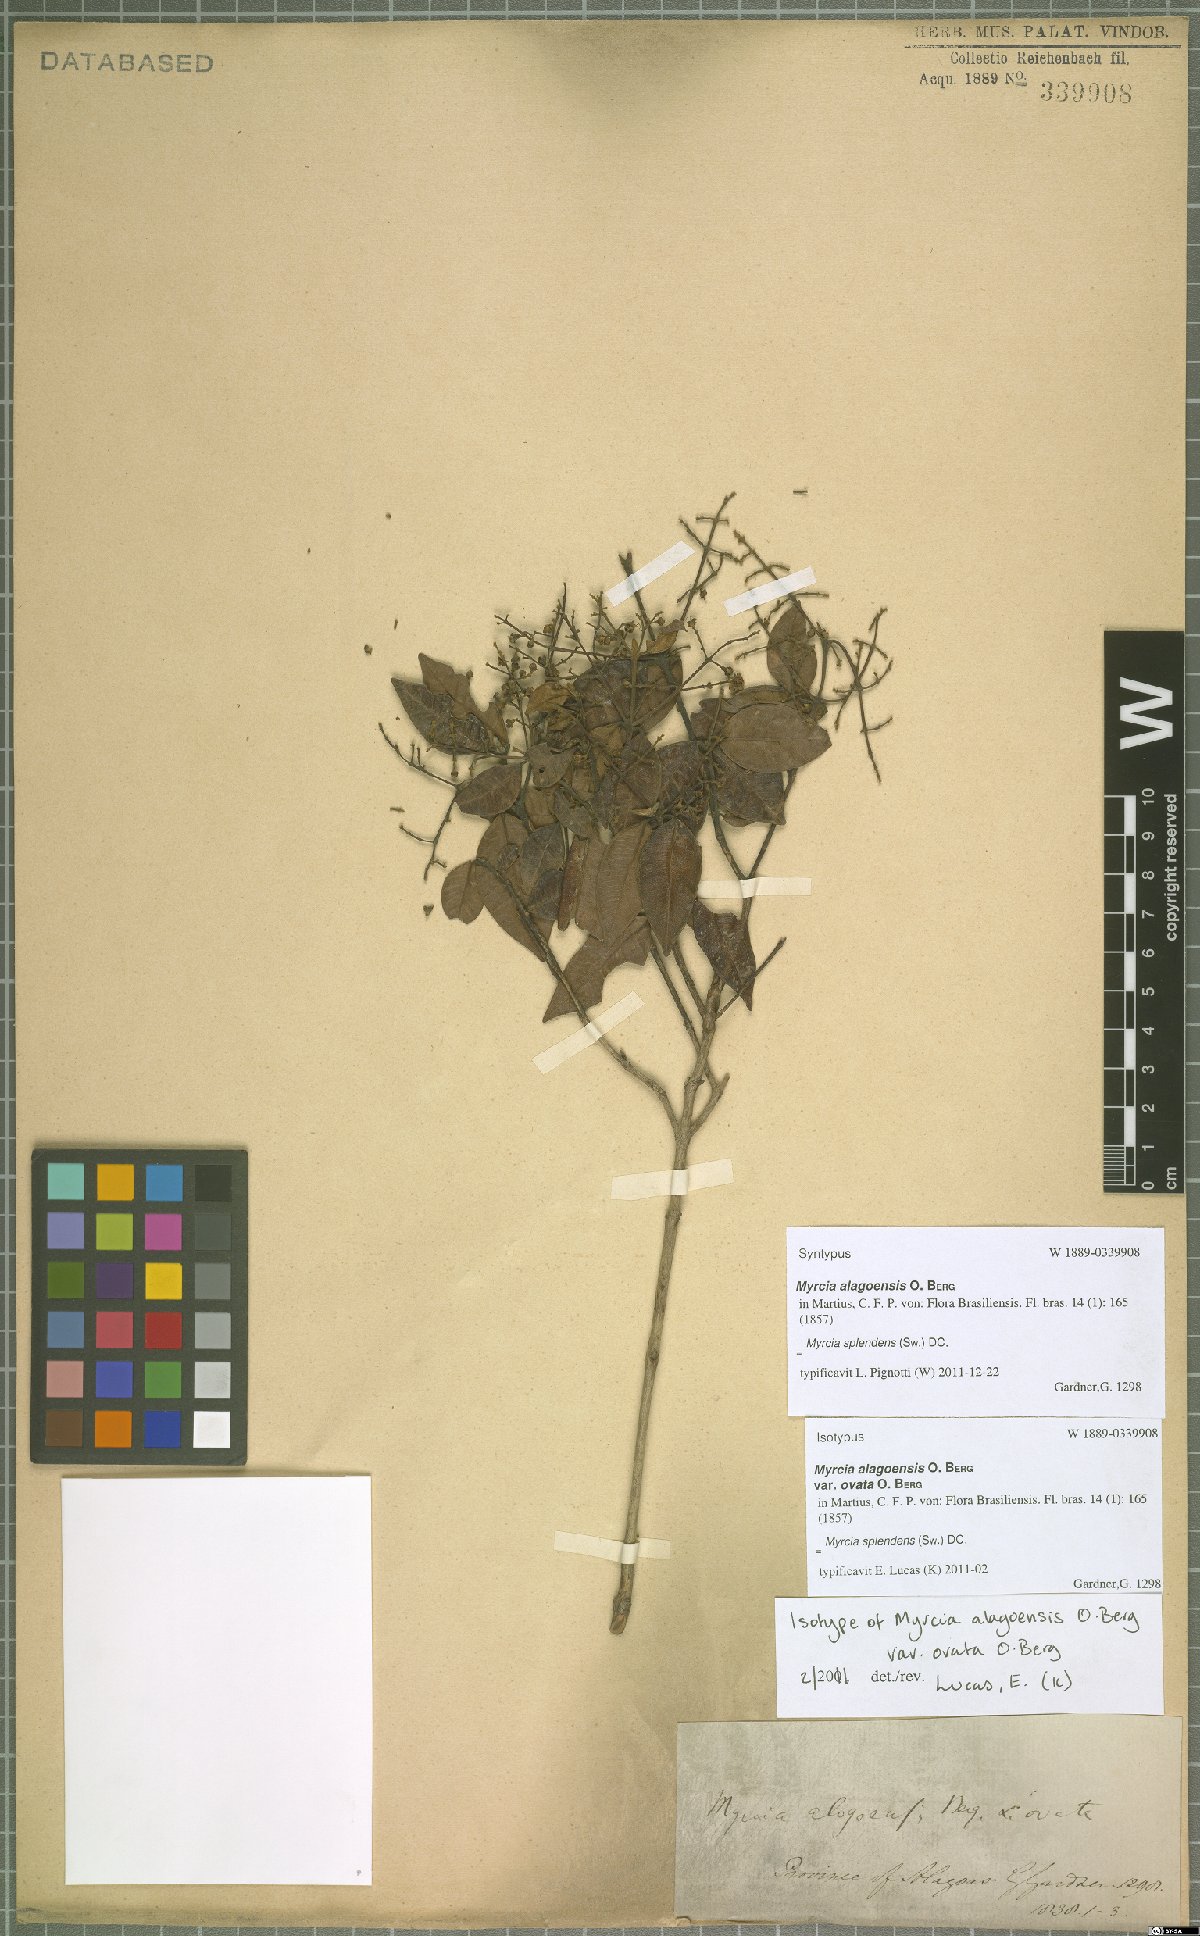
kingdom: Plantae
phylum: Tracheophyta
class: Magnoliopsida
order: Myrtales
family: Myrtaceae
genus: Myrcia
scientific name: Myrcia splendens
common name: Surinam cherry
